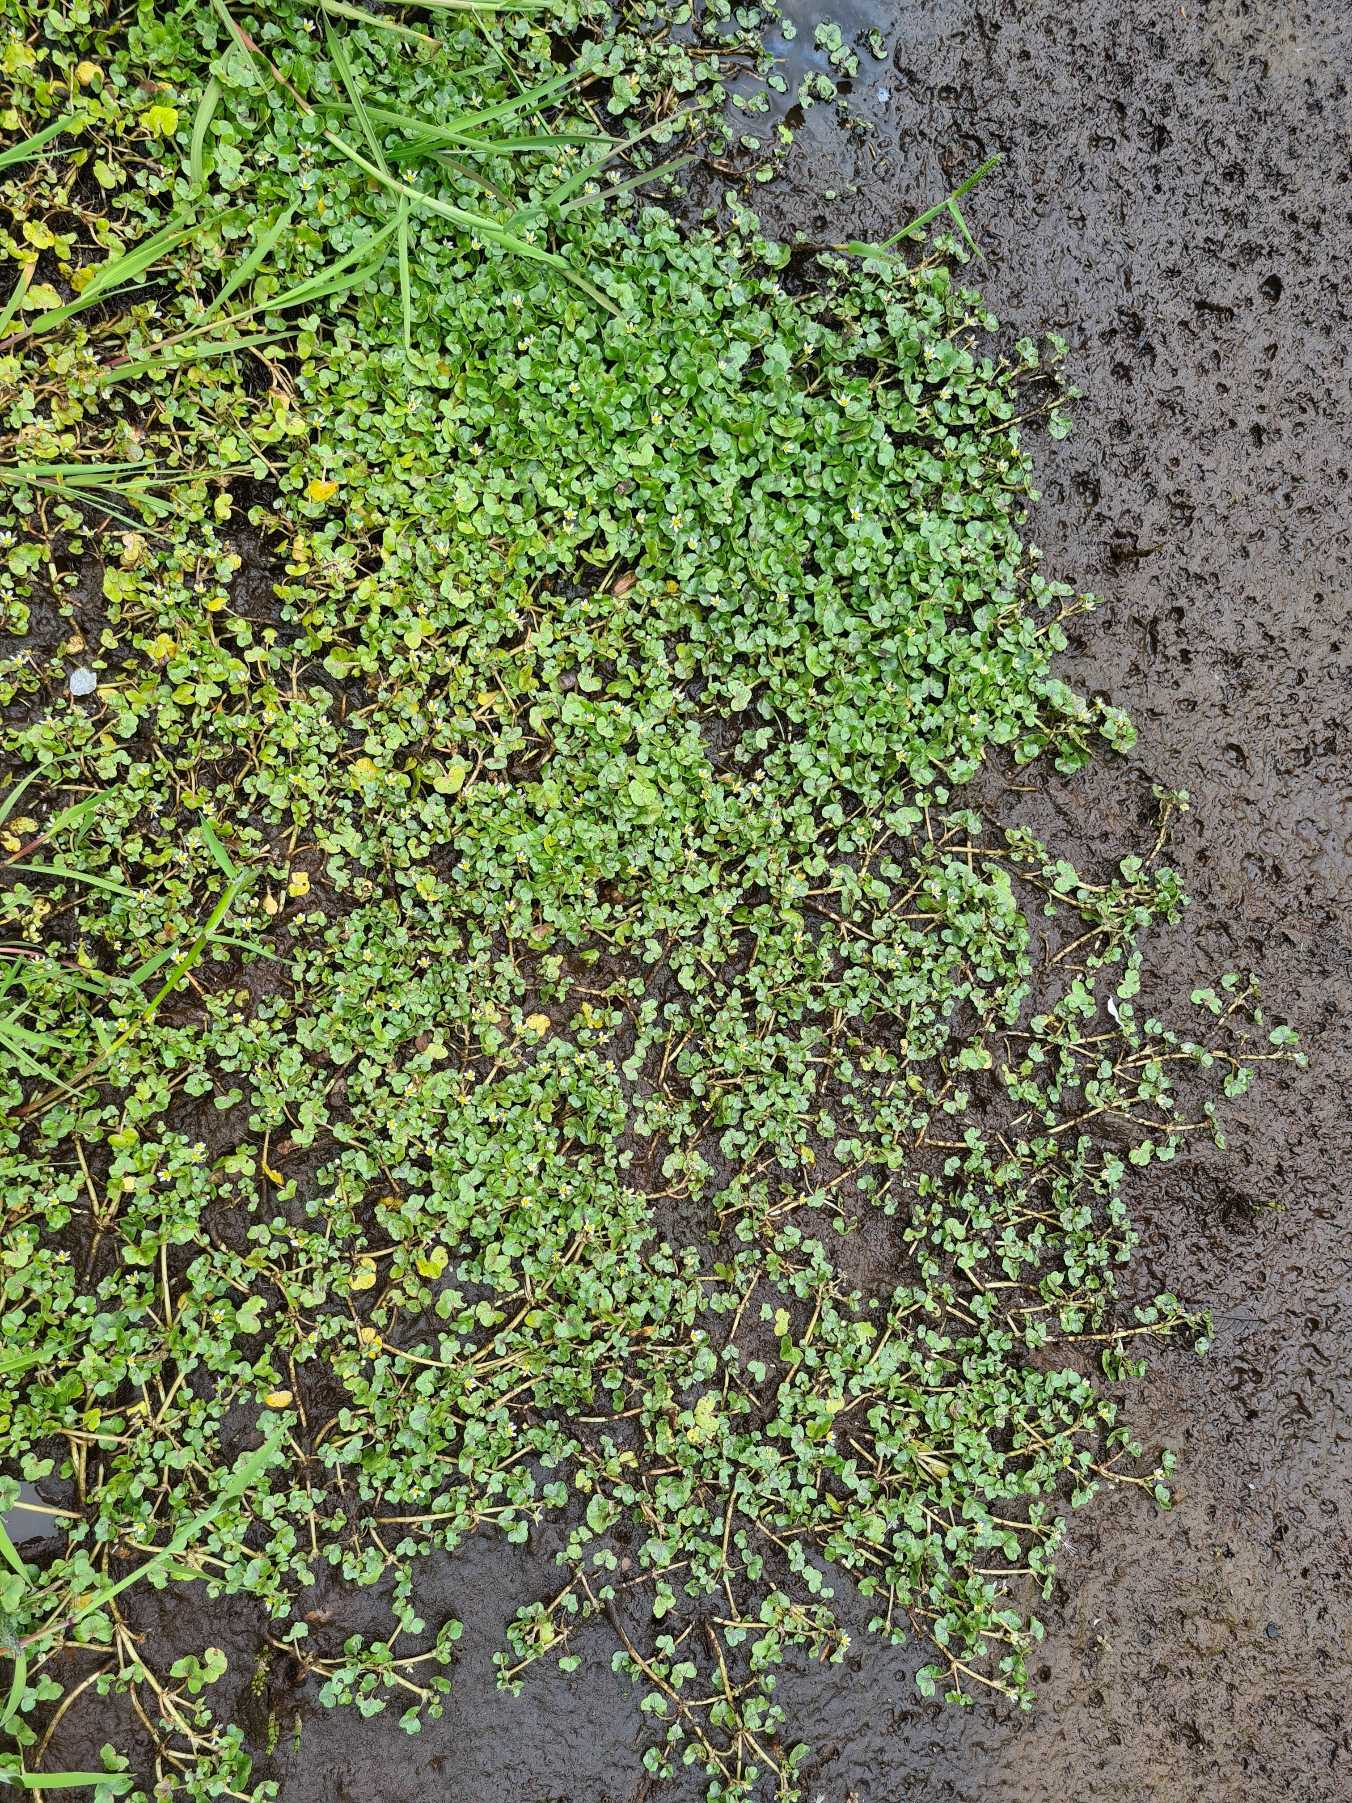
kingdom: Plantae
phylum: Tracheophyta
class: Magnoliopsida
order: Ranunculales
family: Ranunculaceae
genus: Ranunculus
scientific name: Ranunculus hederaceus
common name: Vedbend-vandranunkel
